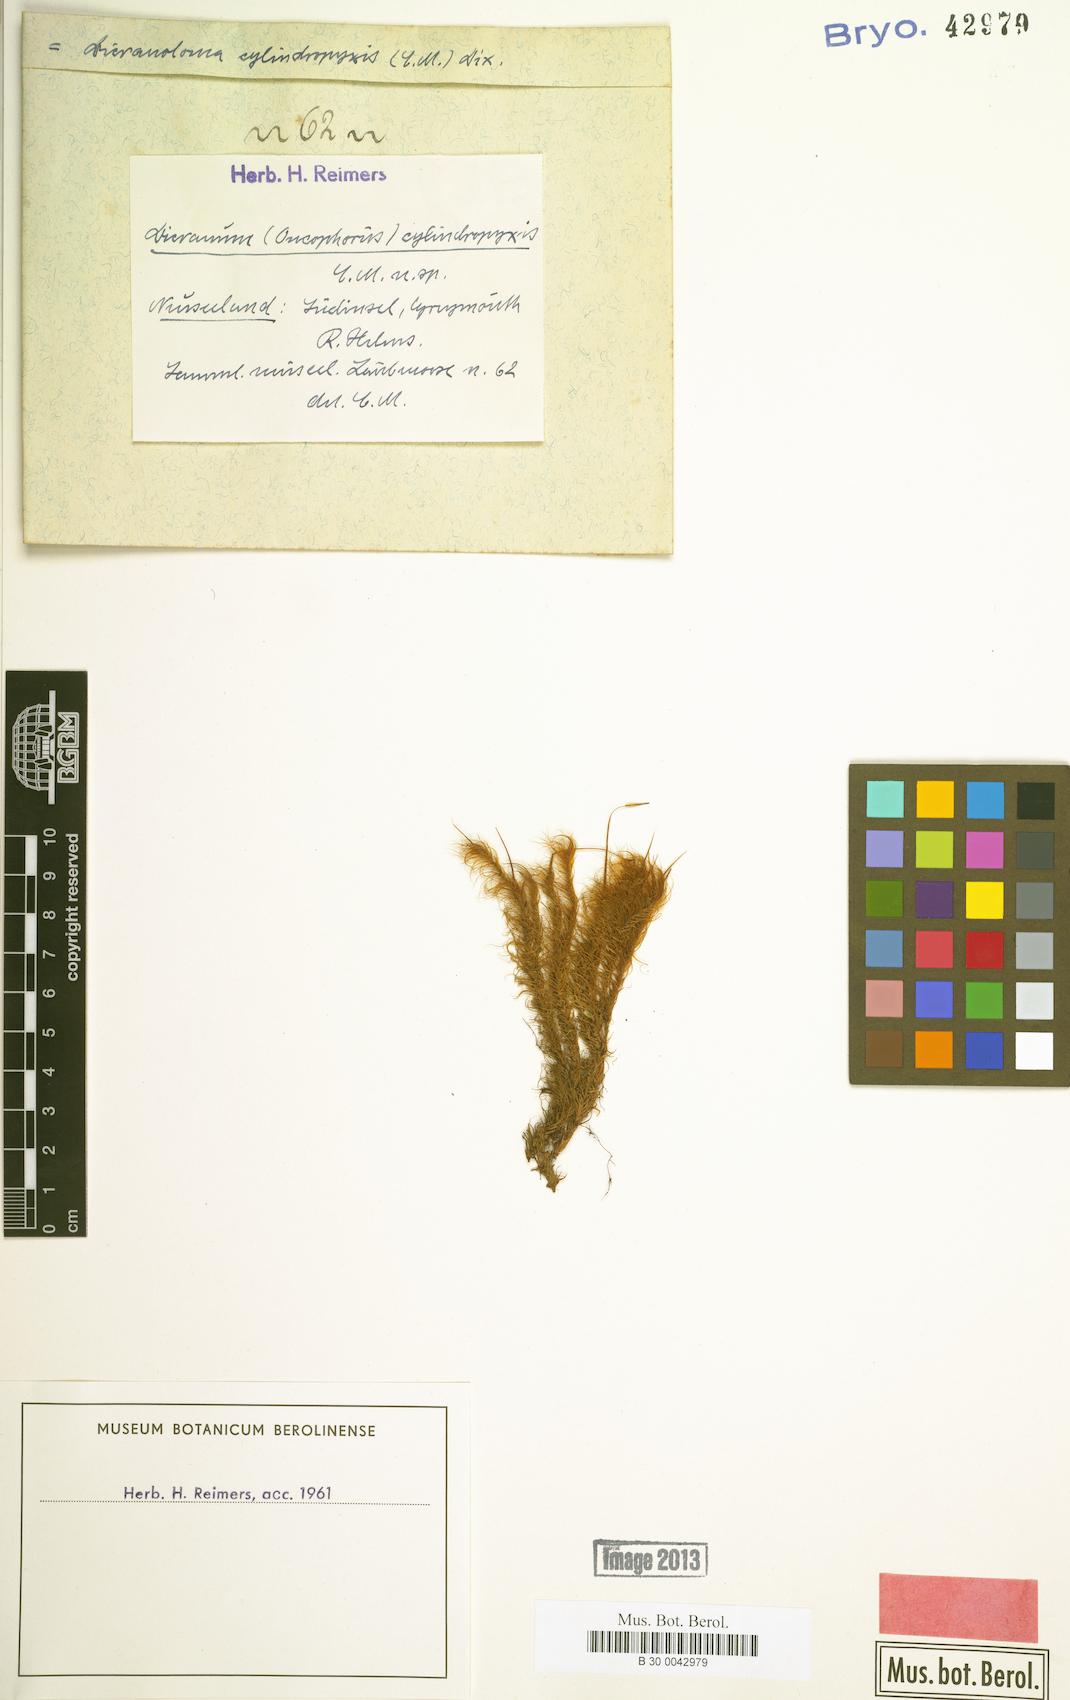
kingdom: Plantae
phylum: Bryophyta
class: Bryopsida
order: Dicranales
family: Dicranaceae
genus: Dicranoloma
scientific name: Dicranoloma robustum
